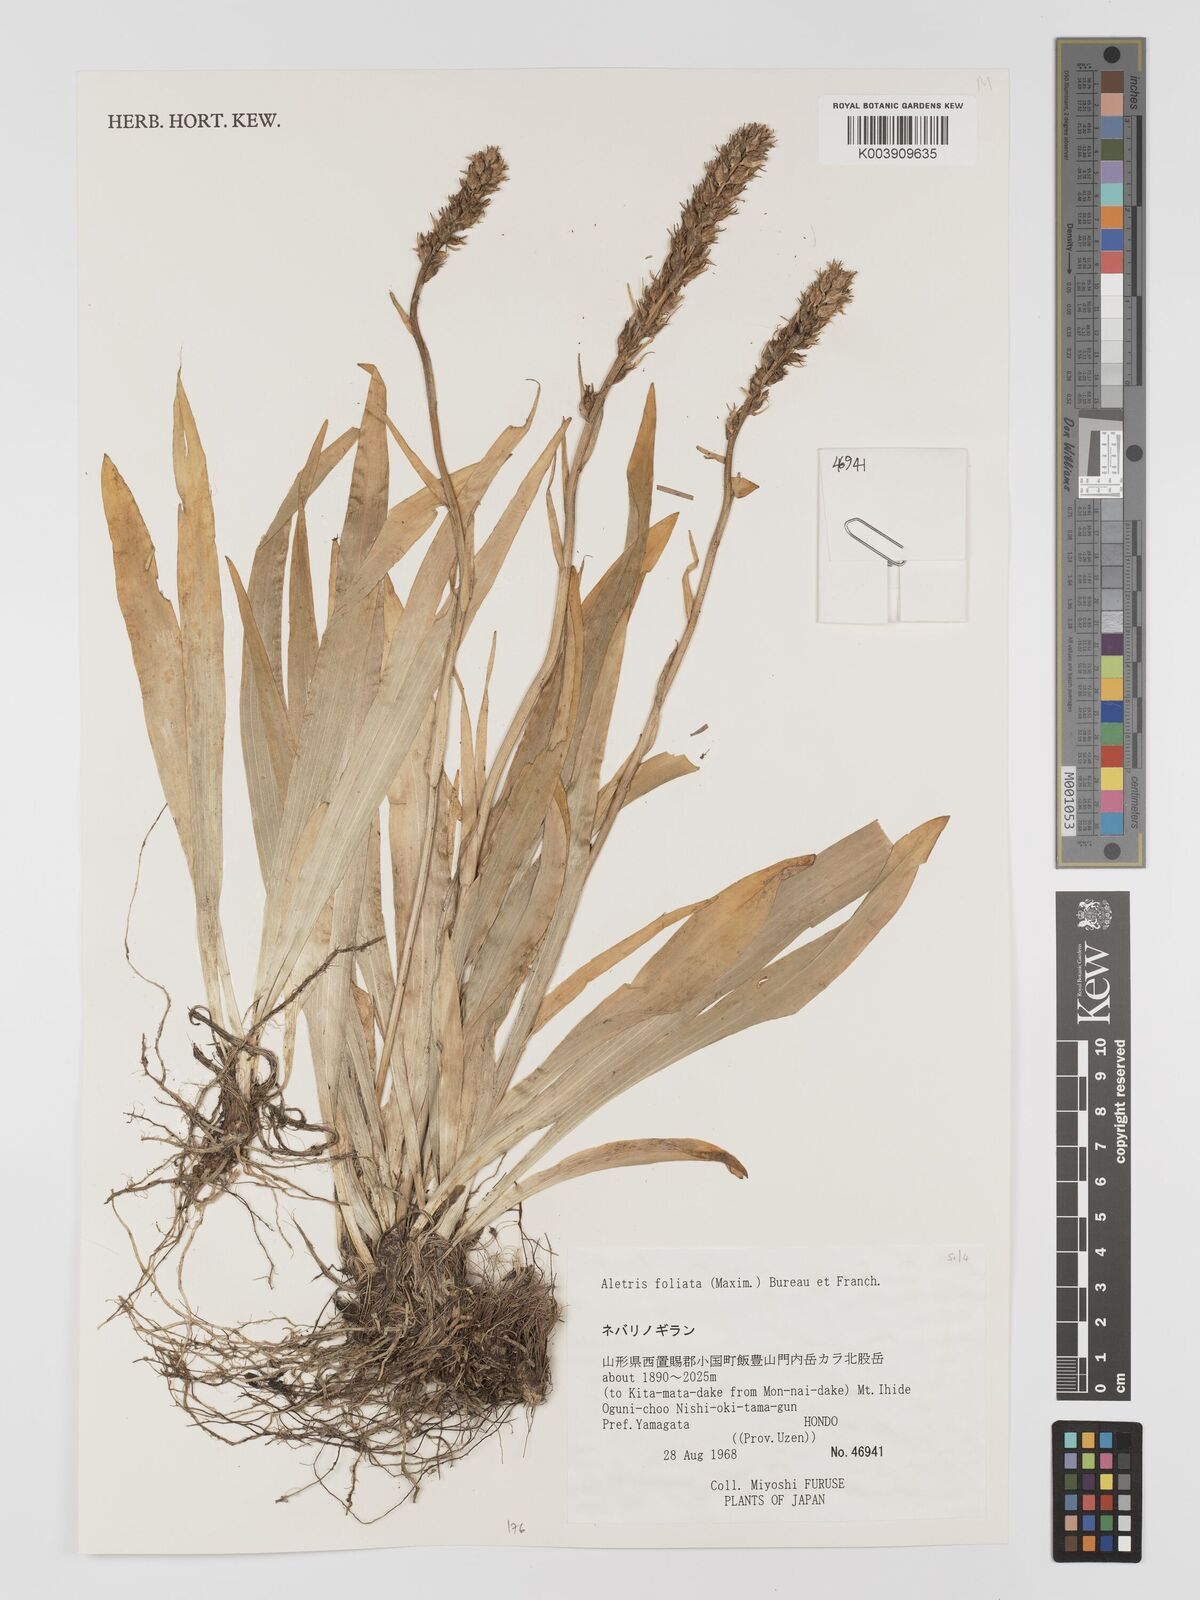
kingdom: Plantae
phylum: Tracheophyta
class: Liliopsida
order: Dioscoreales
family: Nartheciaceae
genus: Aletris
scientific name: Aletris foliata
